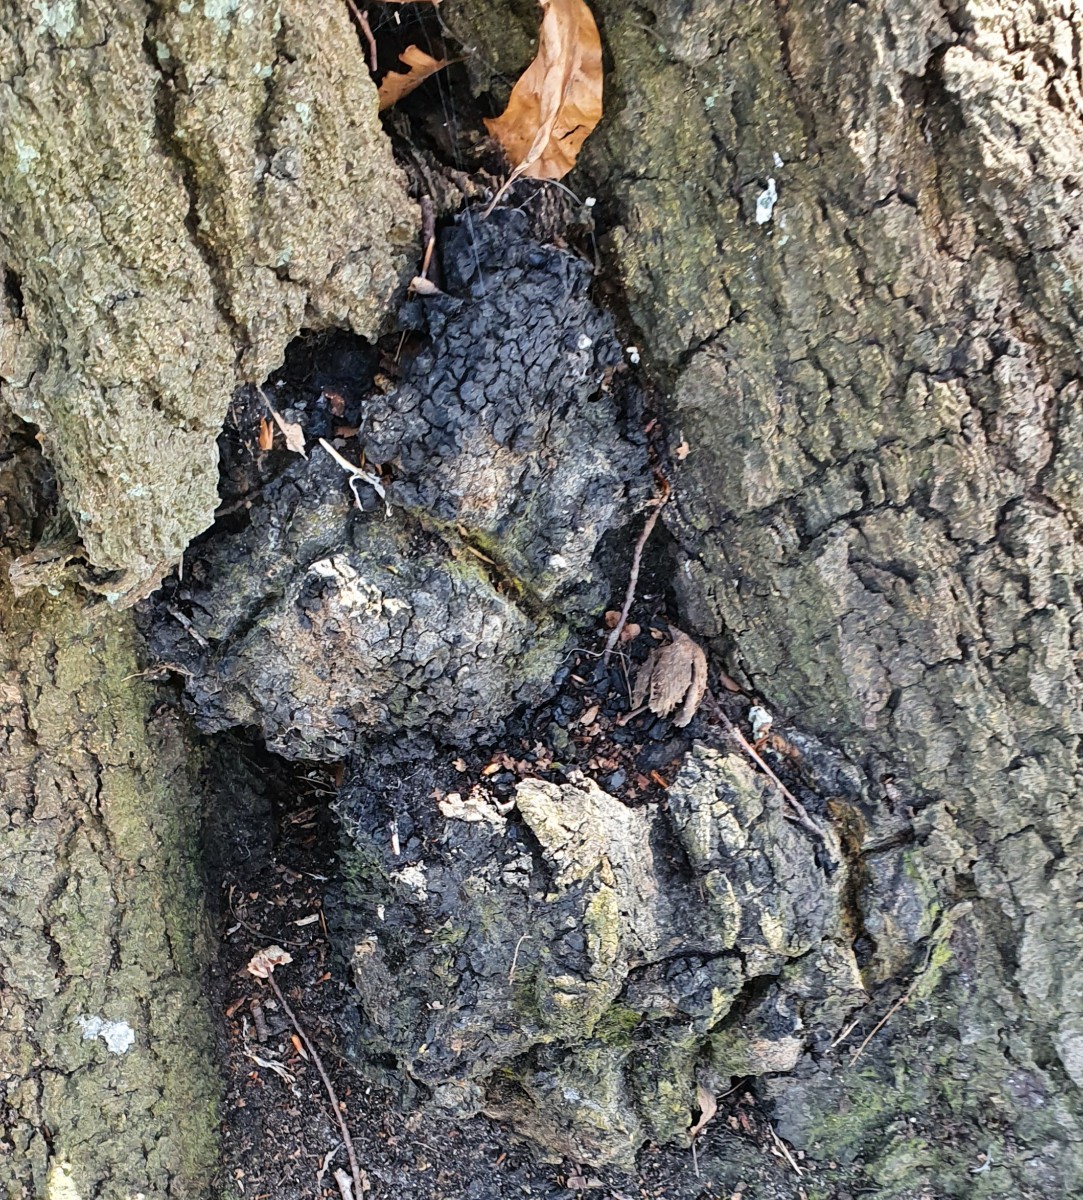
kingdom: Fungi
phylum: Basidiomycota
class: Agaricomycetes
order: Hymenochaetales
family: Hymenochaetaceae
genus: Inonotus
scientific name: Inonotus obliquus
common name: birke-spejlporesvamp
